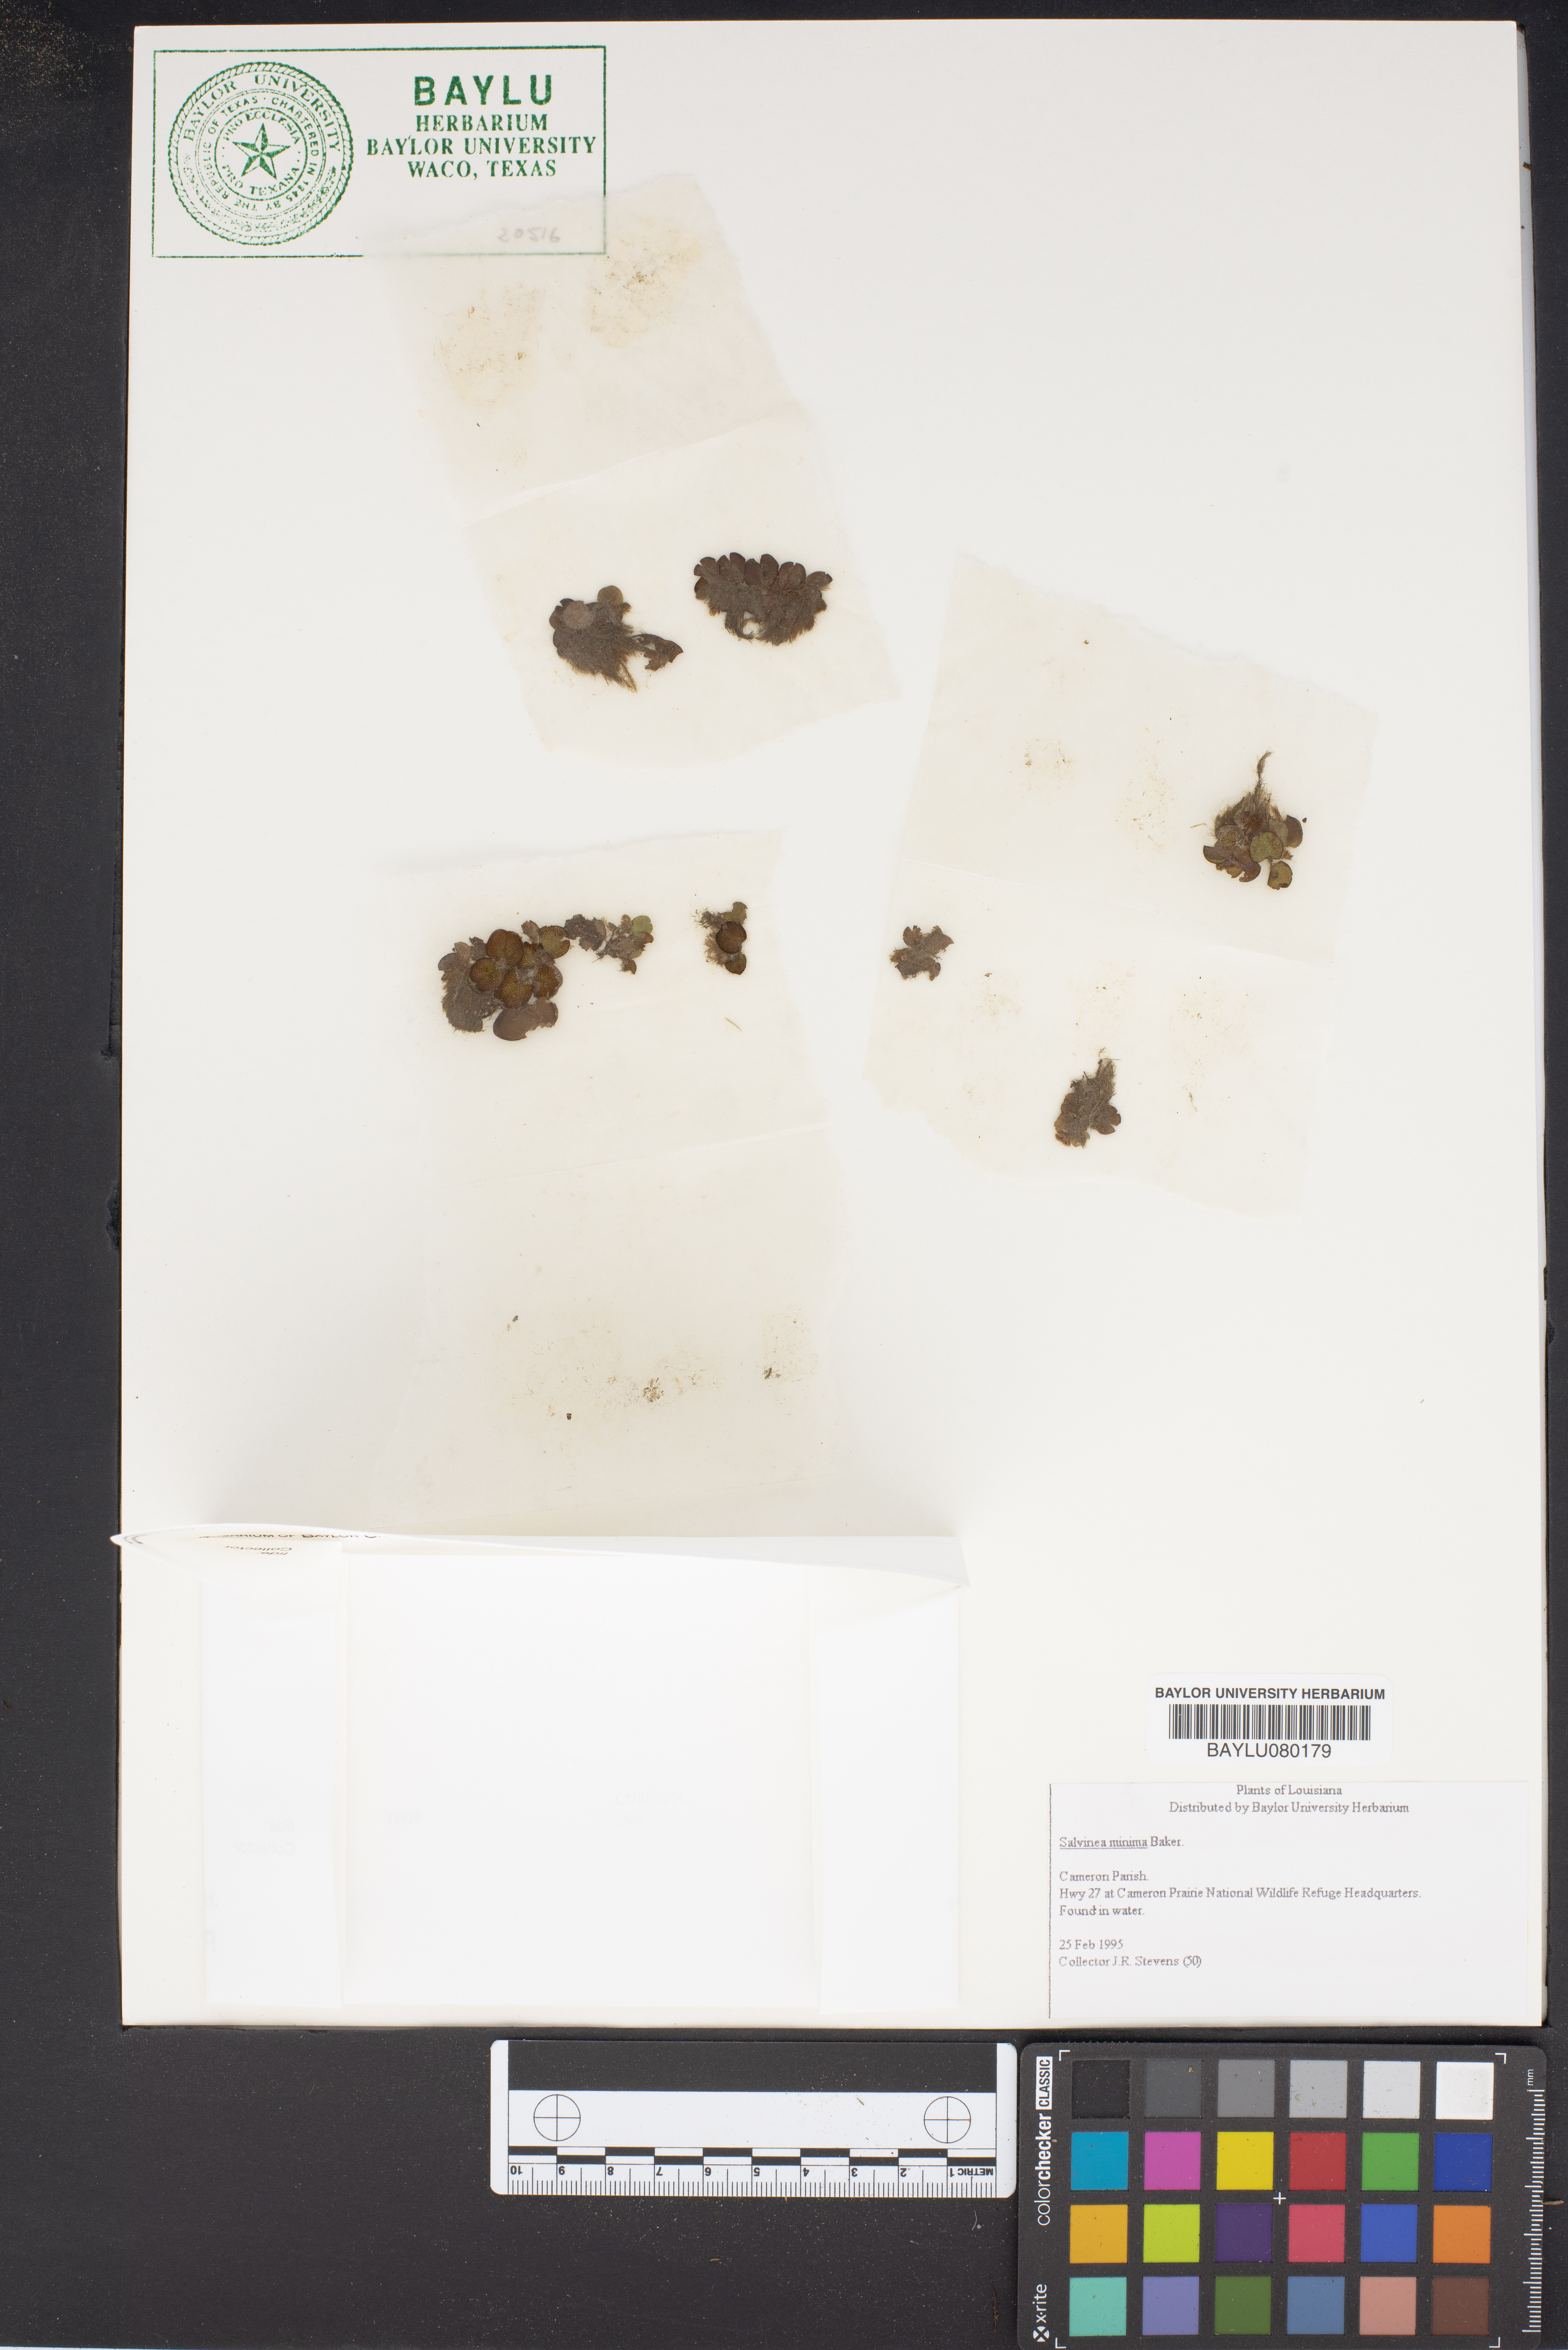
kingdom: Plantae
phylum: Tracheophyta
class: Polypodiopsida
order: Salviniales
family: Salviniaceae
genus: Salvinia
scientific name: Salvinia minima
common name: Water spangles
